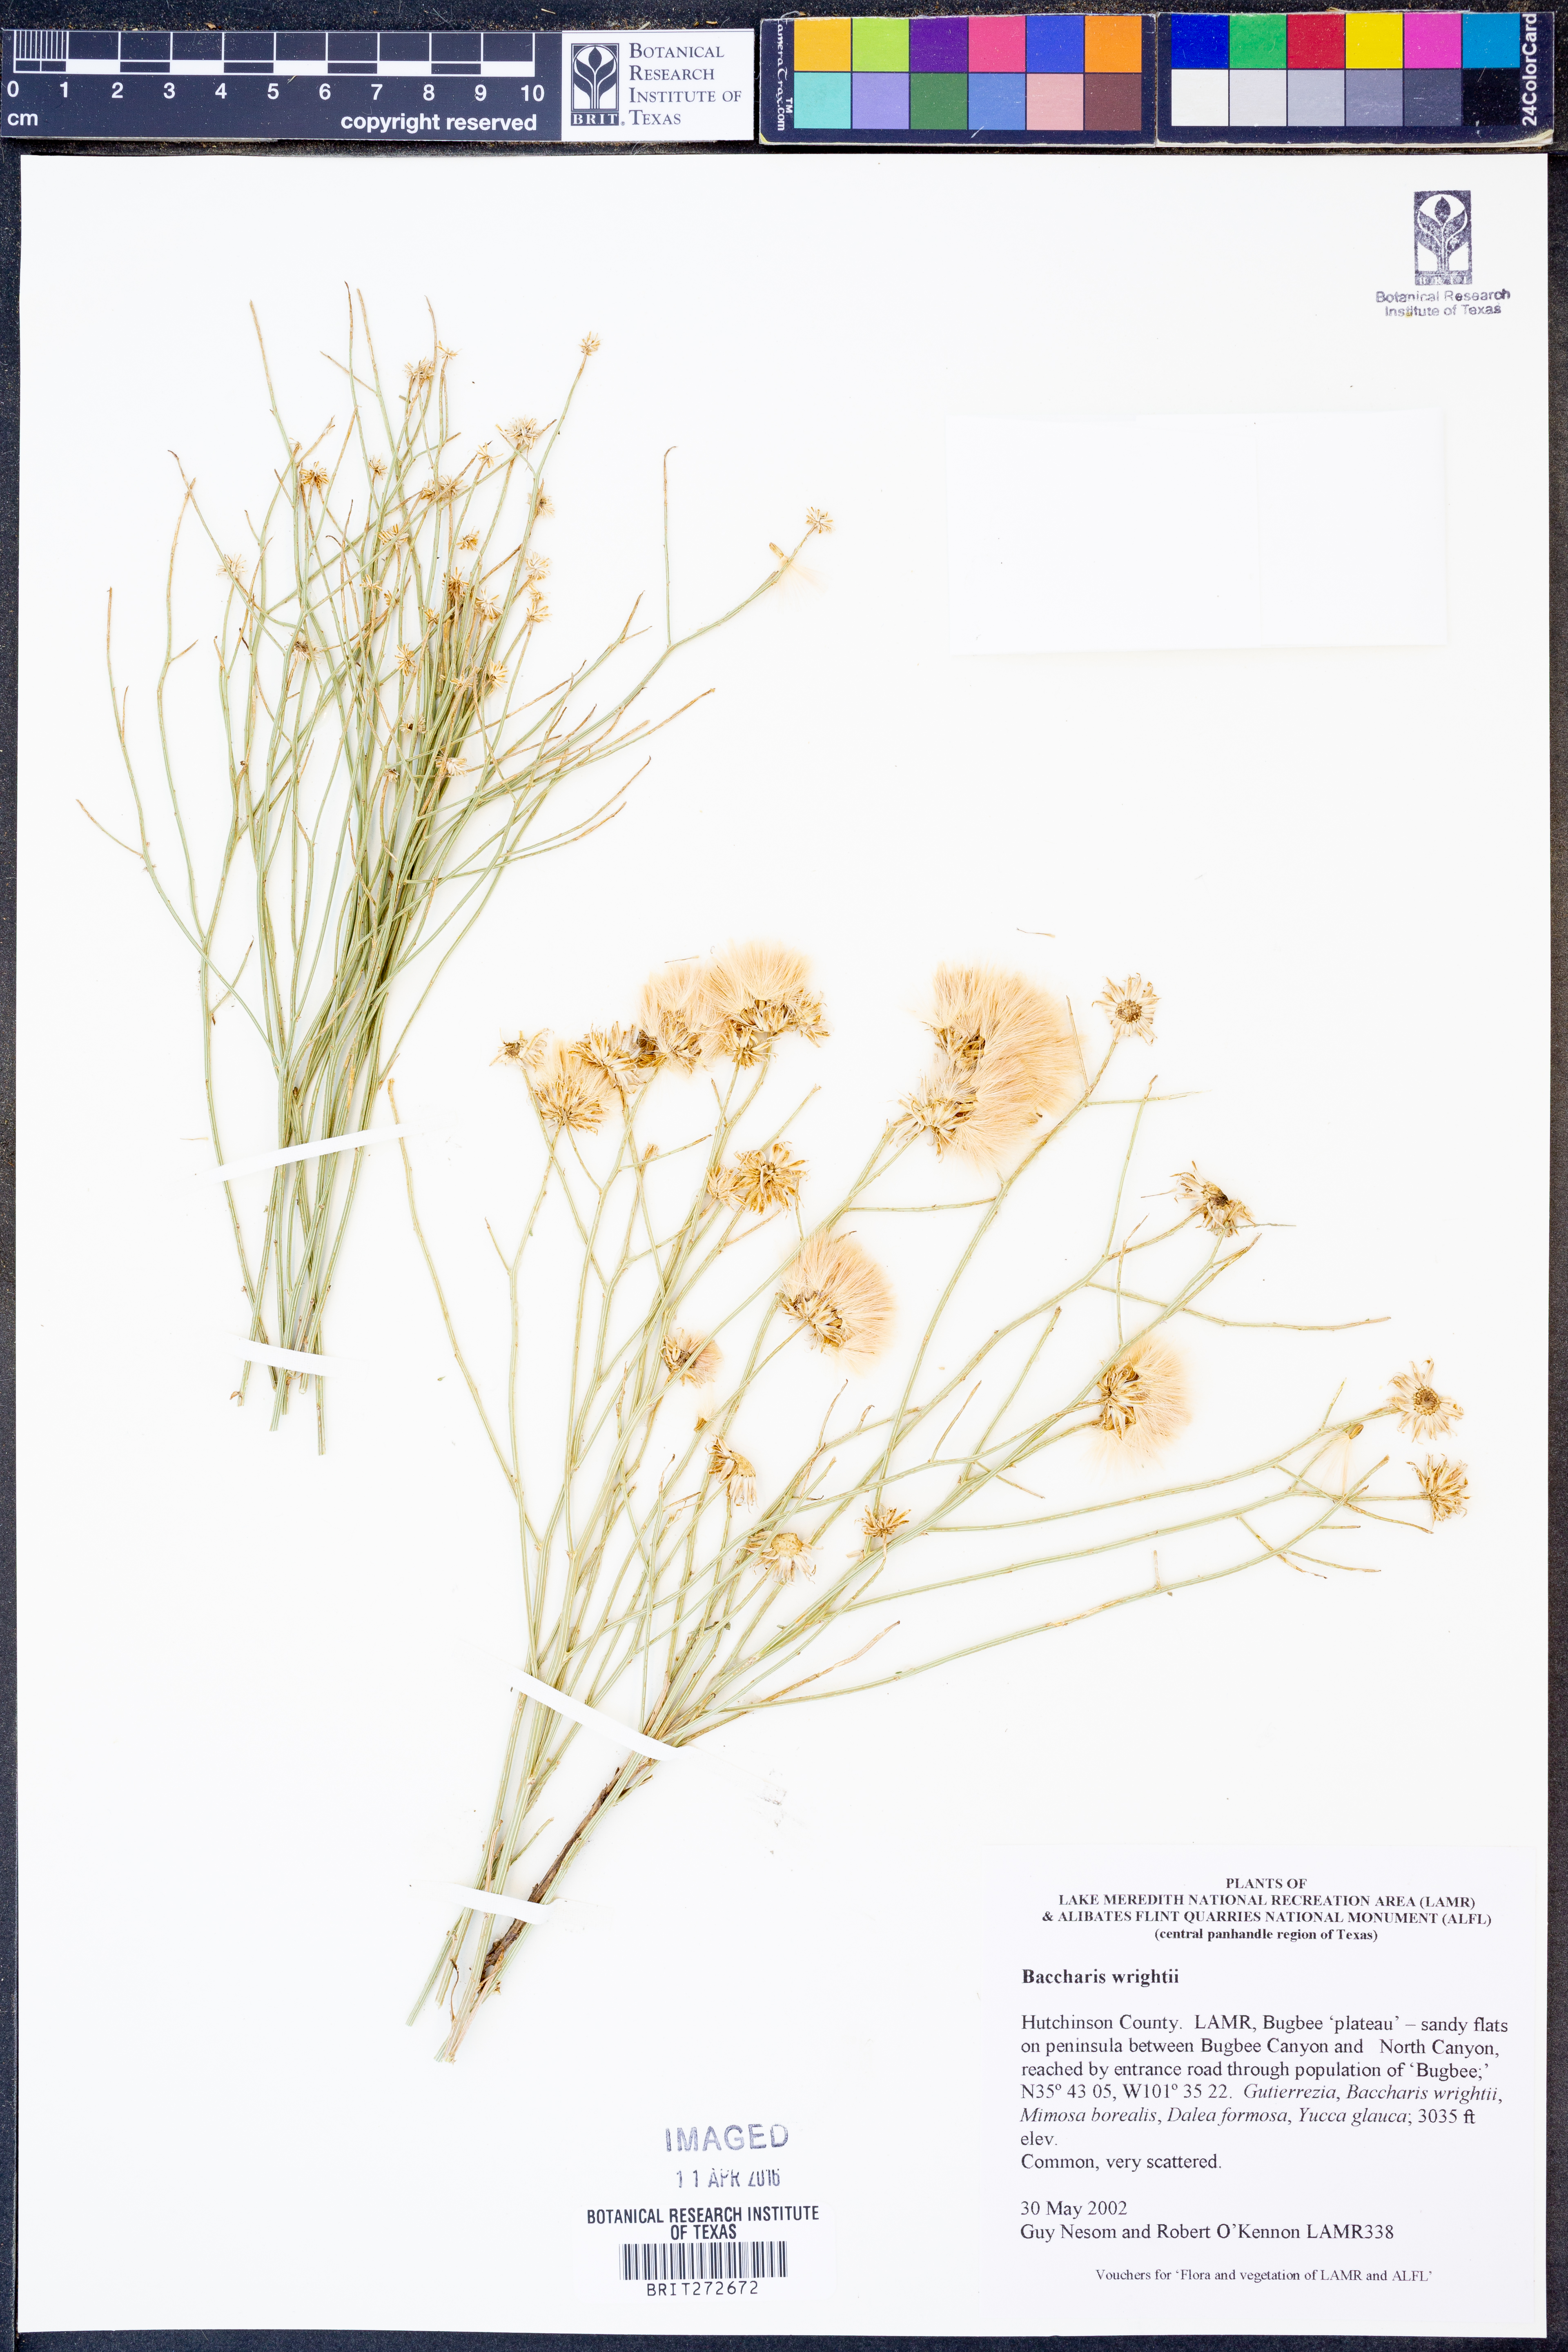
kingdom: Plantae
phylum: Tracheophyta
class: Magnoliopsida
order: Asterales
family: Asteraceae
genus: Baccharis
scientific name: Baccharis wrightii
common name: Wright's baccharis
